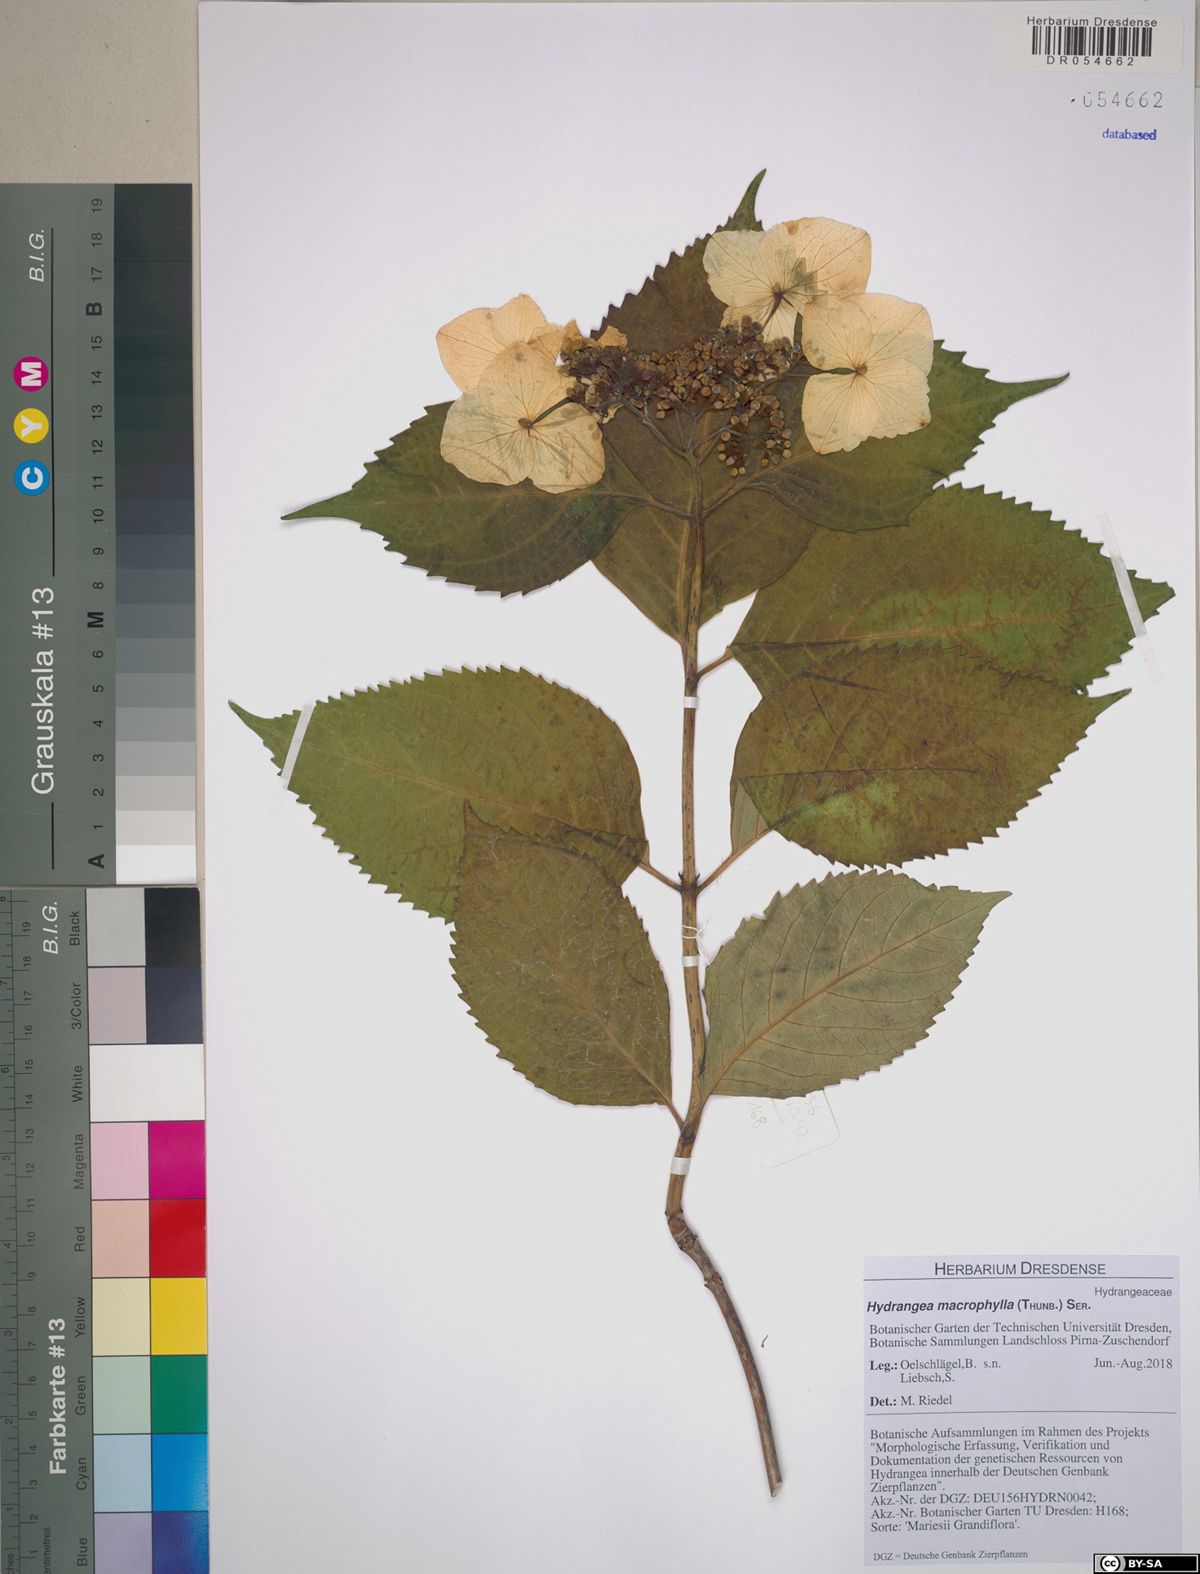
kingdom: Plantae
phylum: Tracheophyta
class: Magnoliopsida
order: Cornales
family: Hydrangeaceae
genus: Hydrangea
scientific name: Hydrangea macrophylla
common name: Hydrangea
